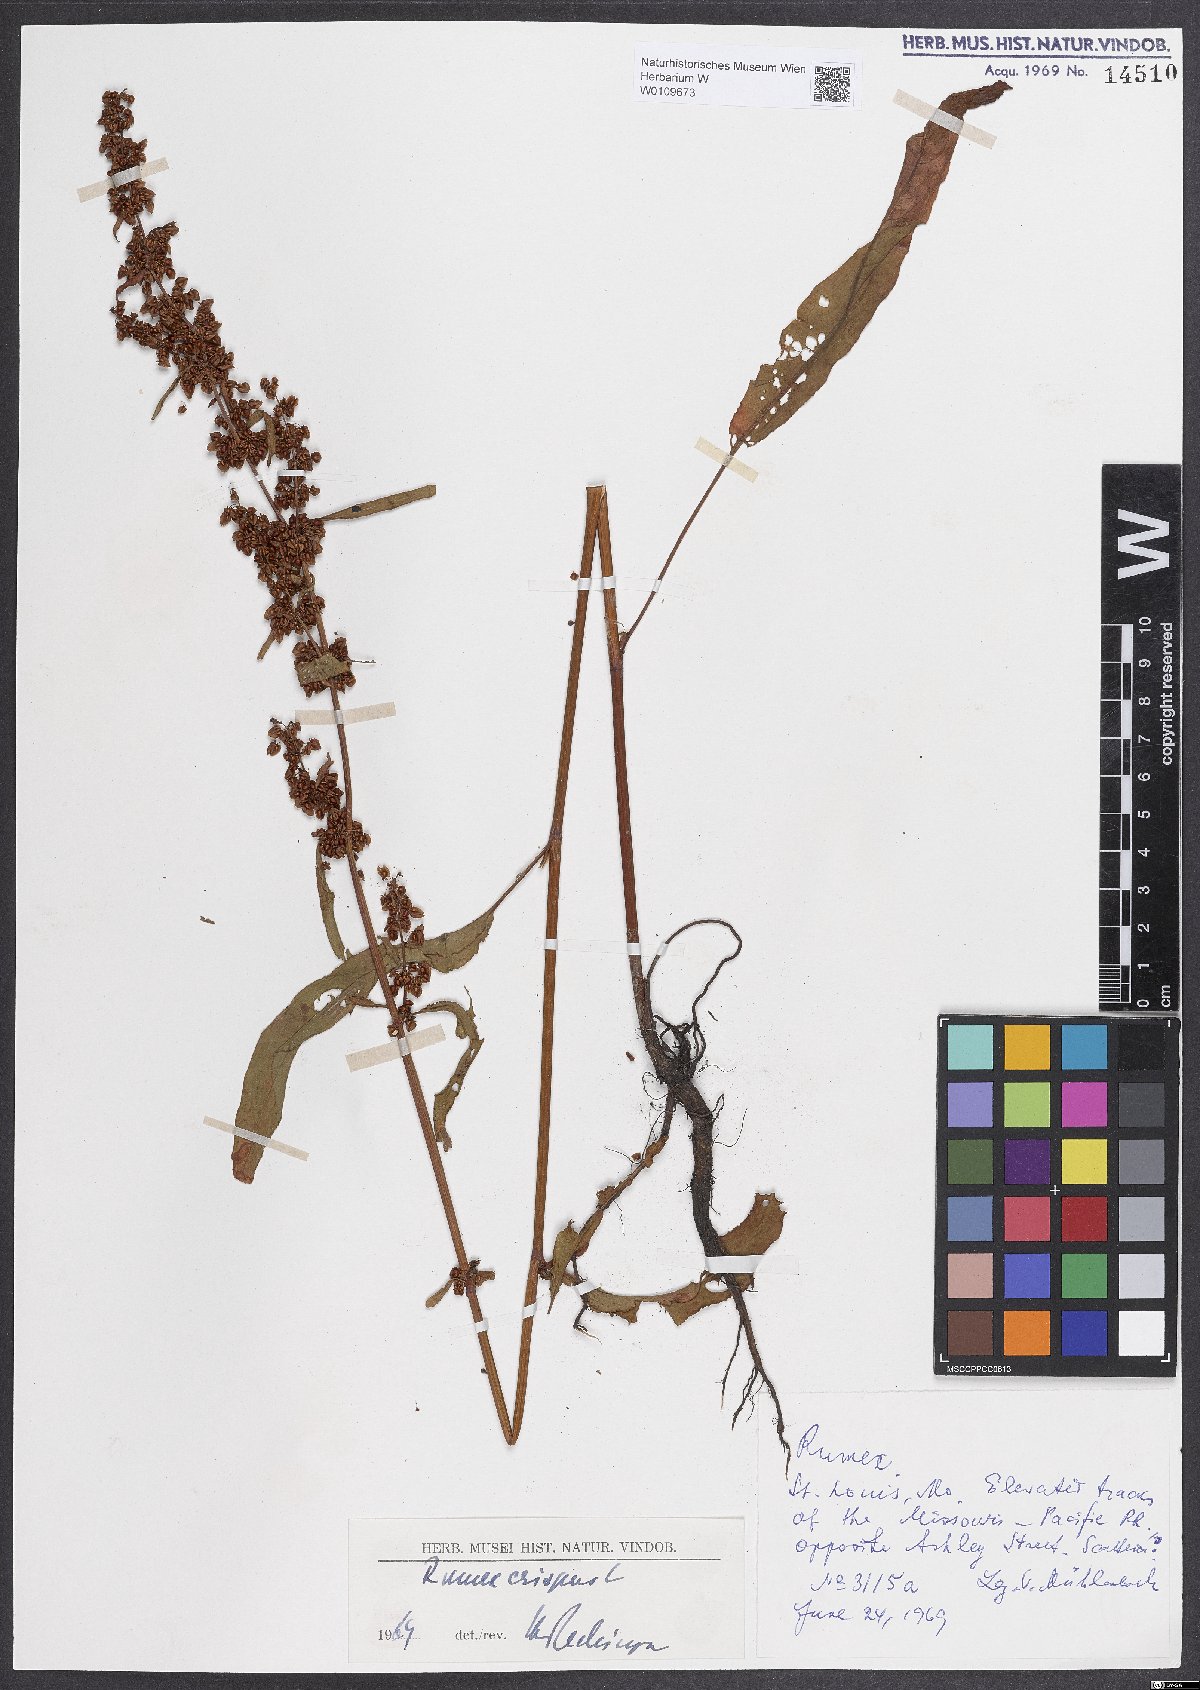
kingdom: Plantae
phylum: Tracheophyta
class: Magnoliopsida
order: Caryophyllales
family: Polygonaceae
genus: Rumex
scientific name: Rumex crispus
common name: Curled dock
